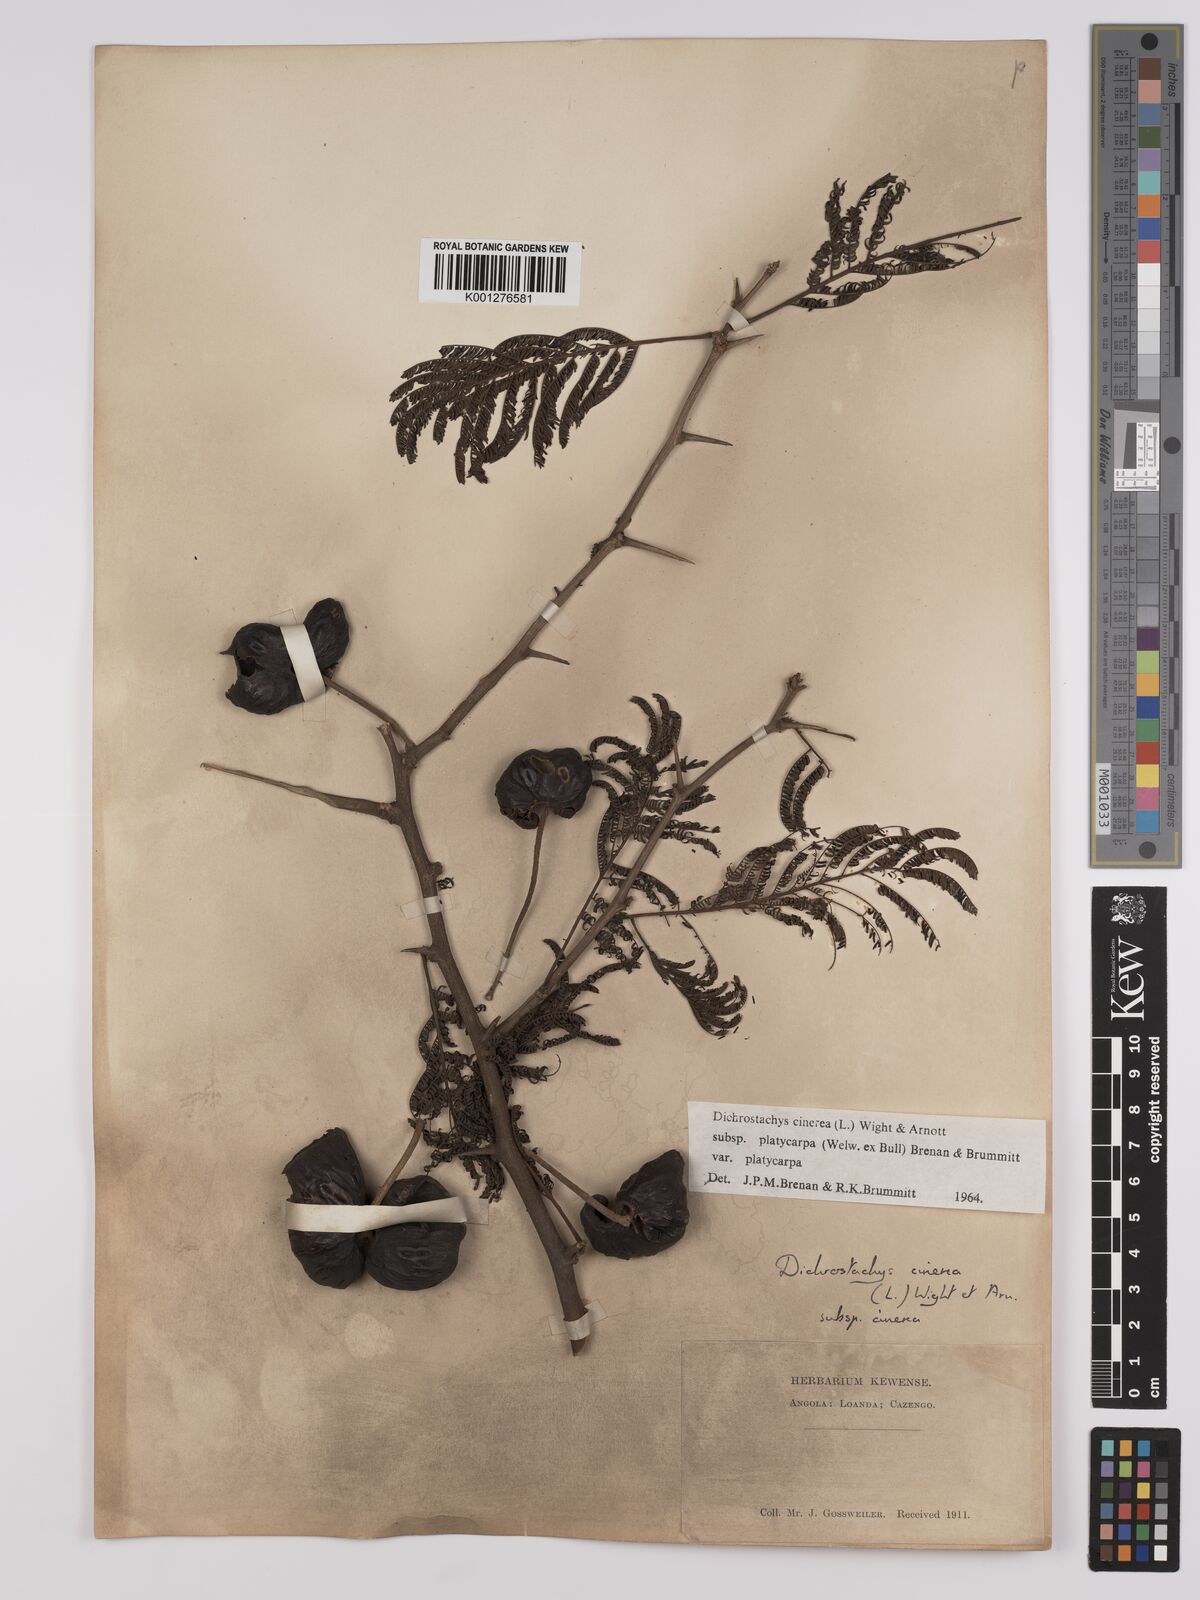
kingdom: Plantae
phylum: Tracheophyta
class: Magnoliopsida
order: Fabales
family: Fabaceae
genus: Dichrostachys
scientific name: Dichrostachys cinerea
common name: Sicklebush
